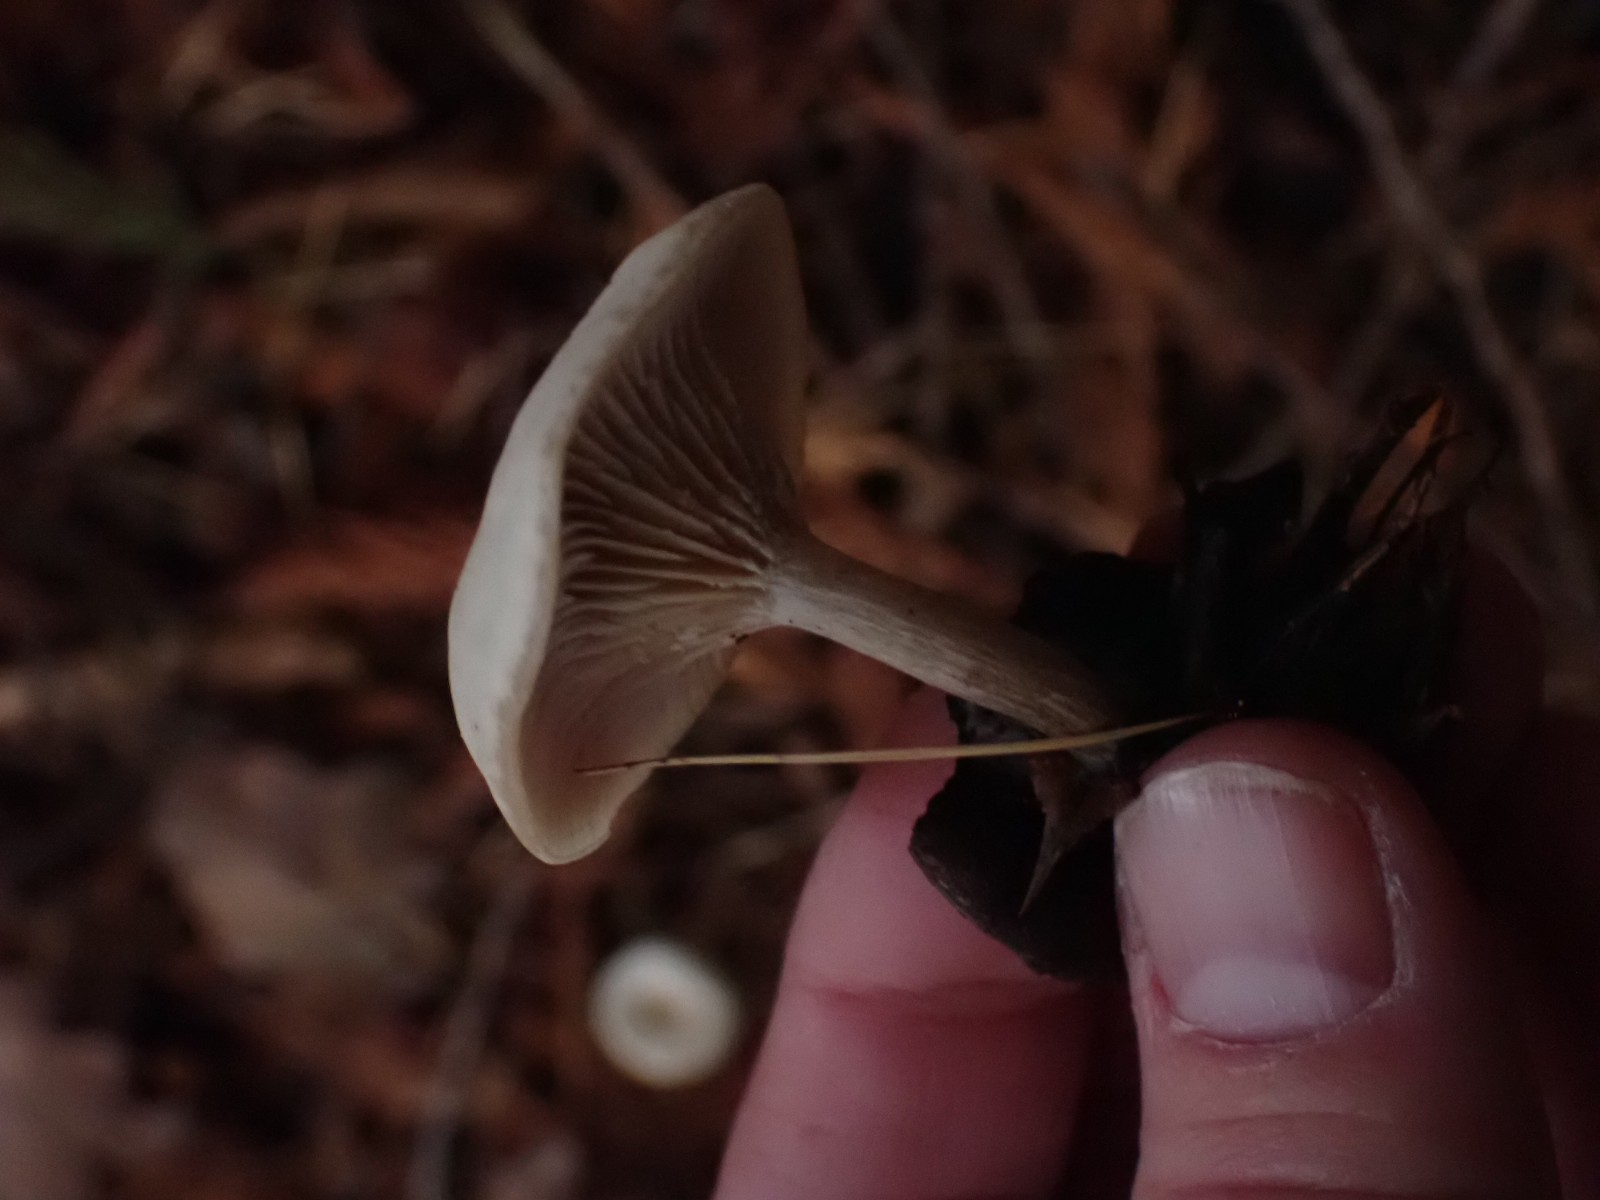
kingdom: Fungi
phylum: Basidiomycota
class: Agaricomycetes
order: Agaricales
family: Tricholomataceae
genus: Clitocybe
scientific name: Clitocybe metachroa
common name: grå tragthat
